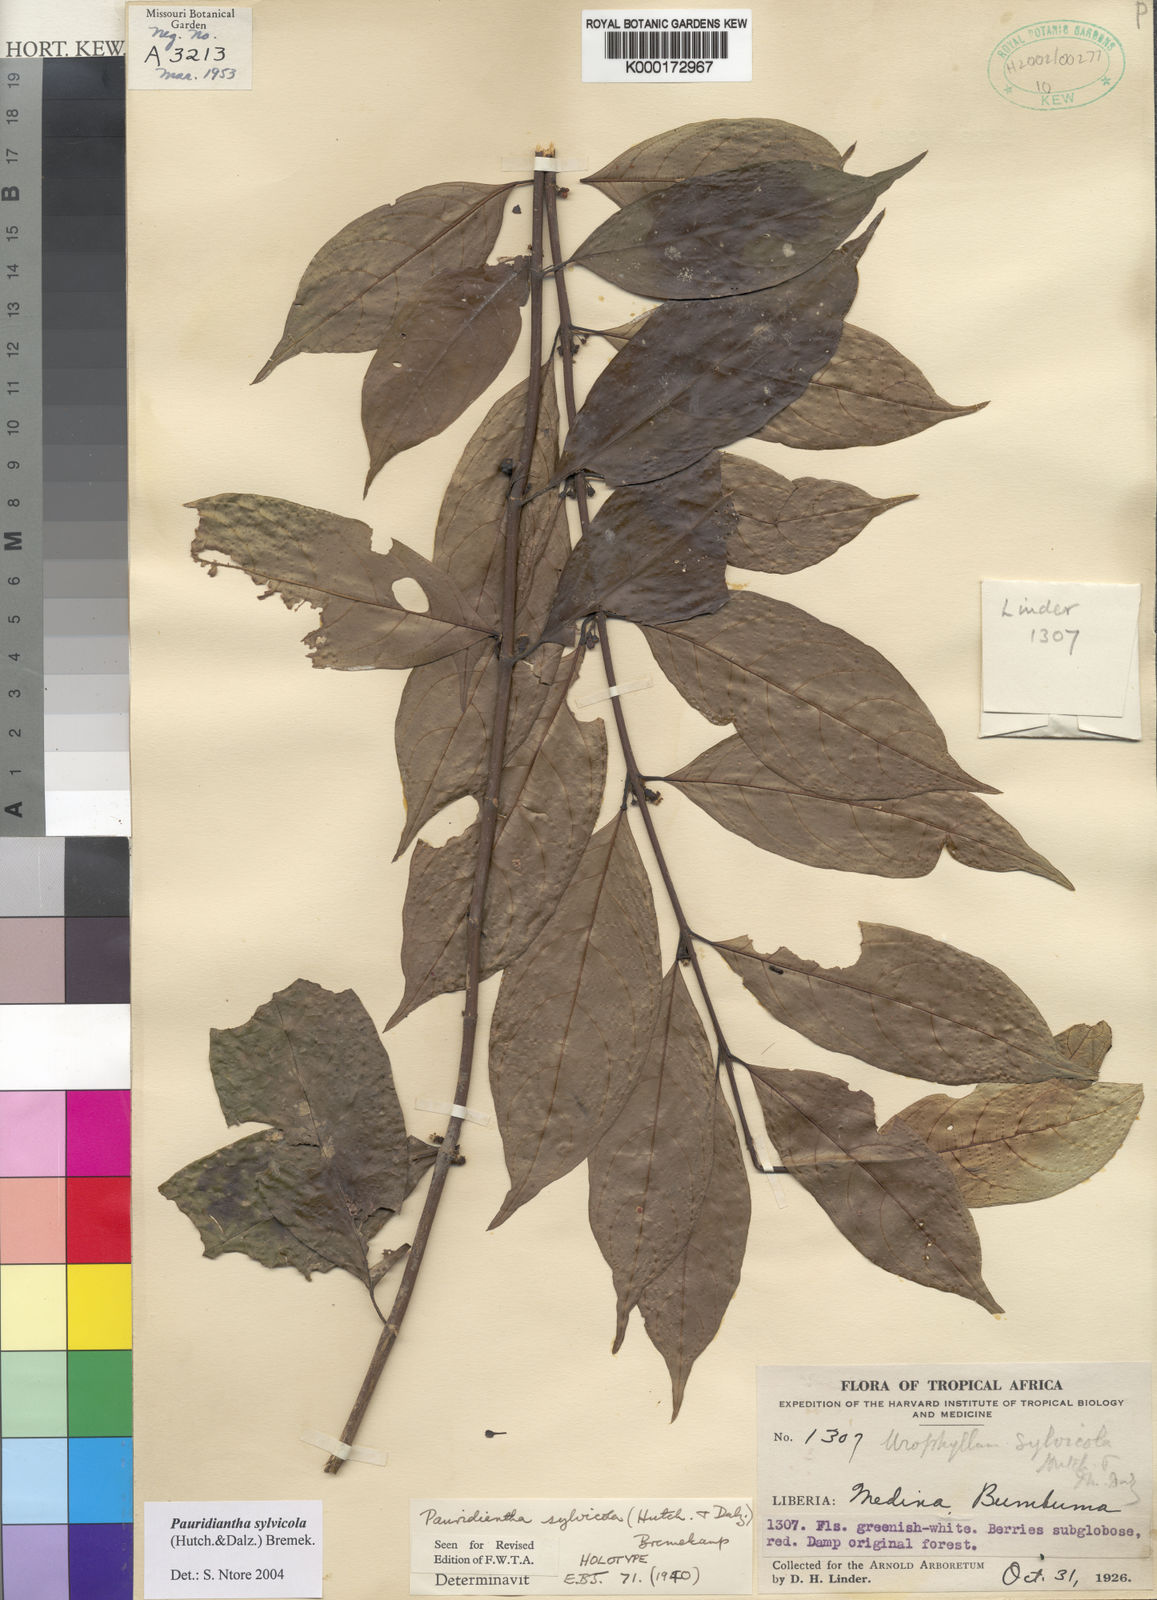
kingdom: Plantae
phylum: Tracheophyta
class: Magnoliopsida
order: Gentianales
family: Rubiaceae
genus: Pauridiantha
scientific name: Pauridiantha sylvicola
